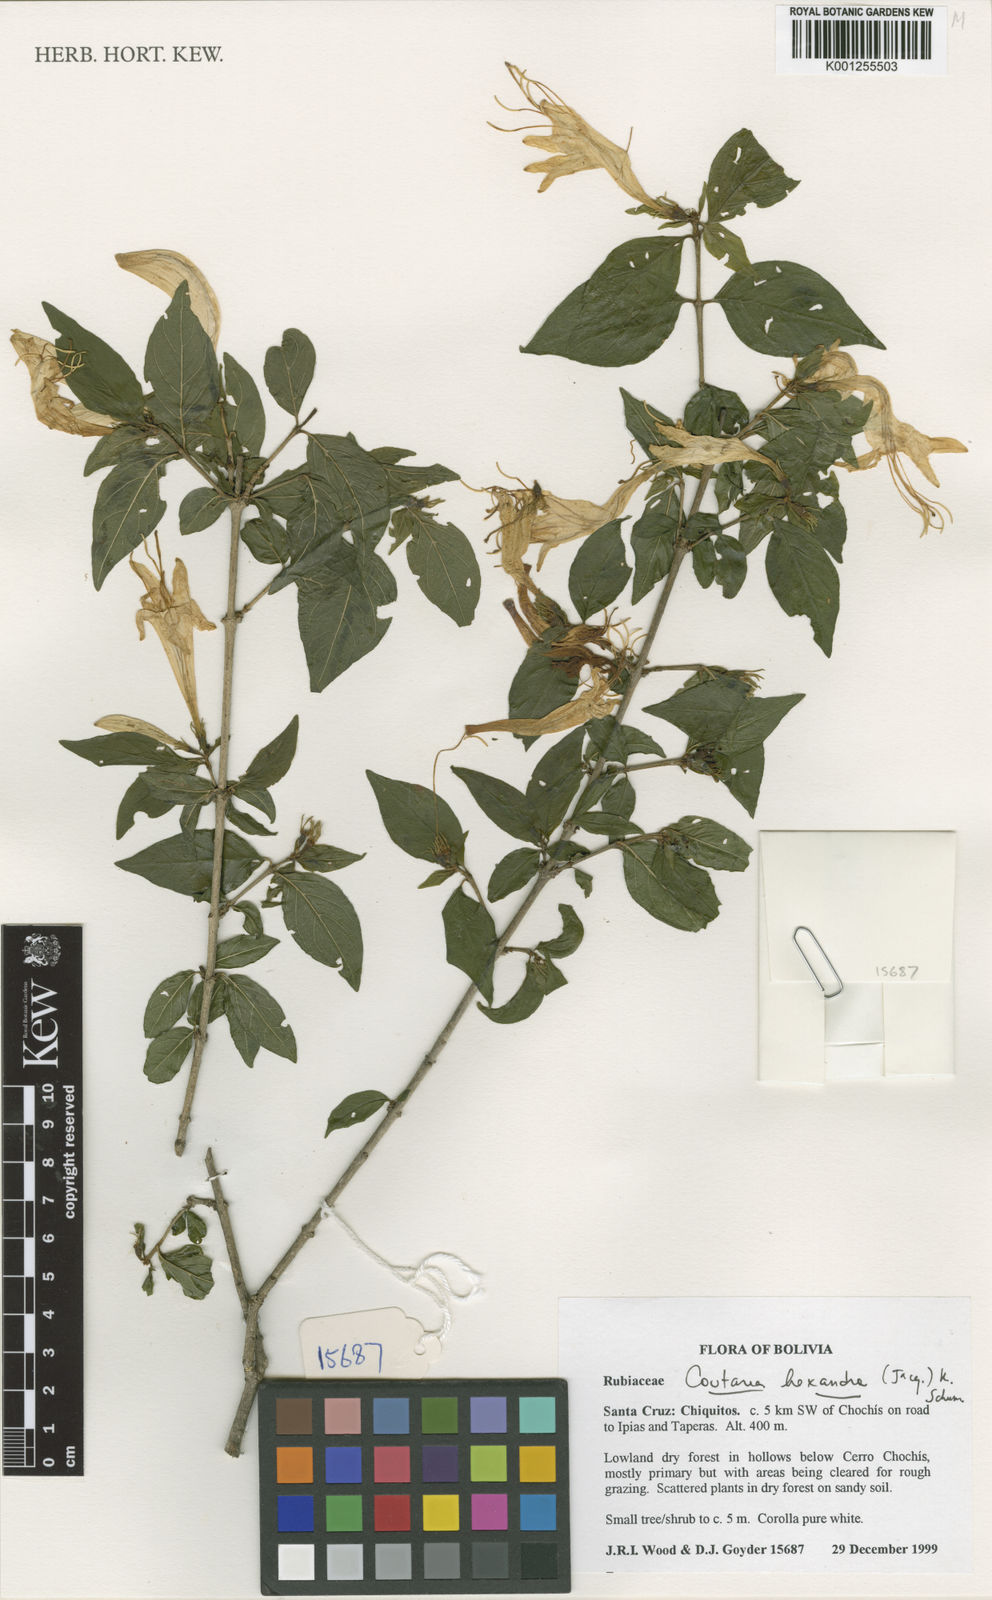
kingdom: Plantae
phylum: Tracheophyta
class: Magnoliopsida
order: Gentianales
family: Rubiaceae
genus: Coutarea
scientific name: Coutarea hexandra
